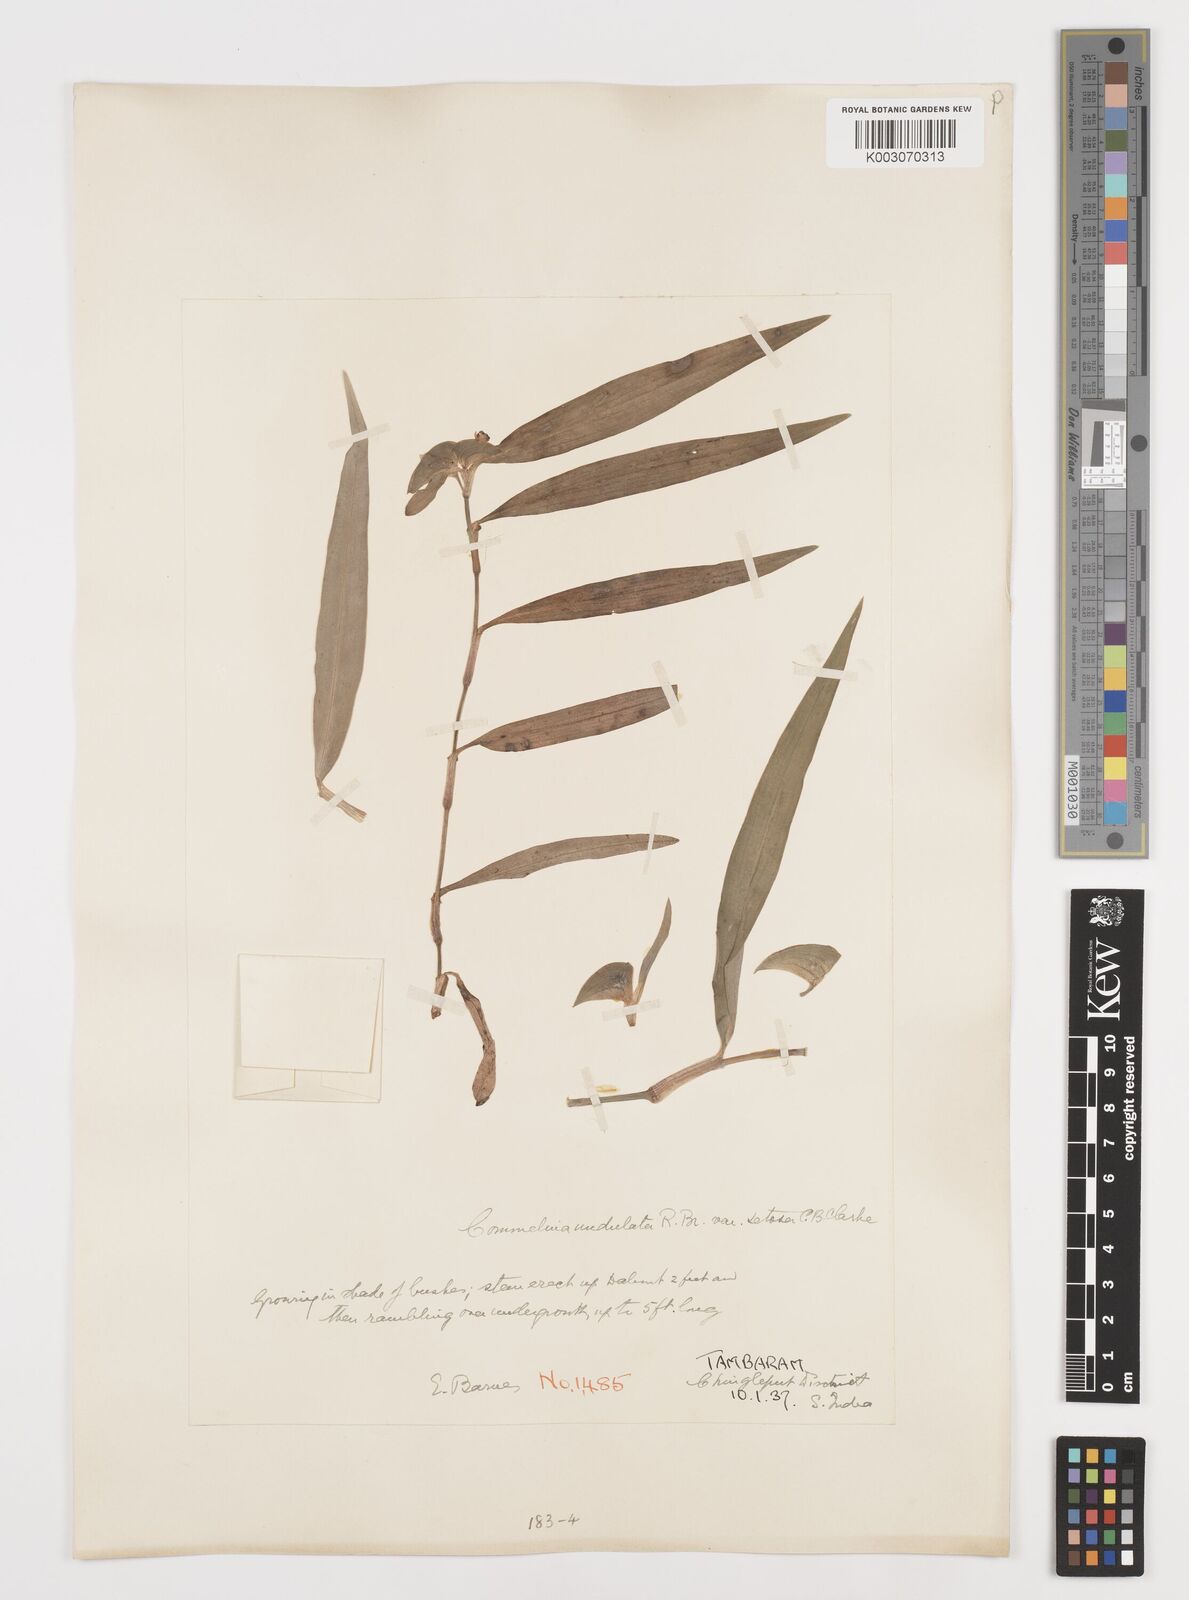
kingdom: Plantae
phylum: Tracheophyta
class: Liliopsida
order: Commelinales
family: Commelinaceae
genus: Commelina
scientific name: Commelina chamissonis
